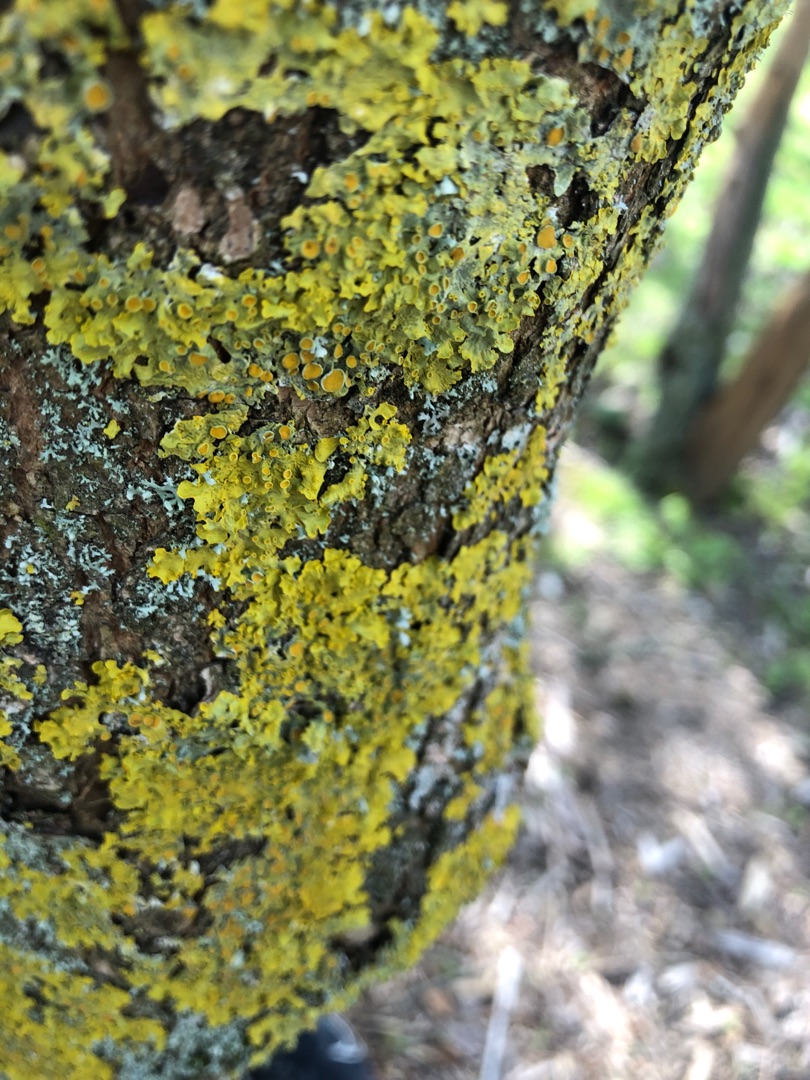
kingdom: Fungi
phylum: Ascomycota
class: Lecanoromycetes
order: Teloschistales
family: Teloschistaceae
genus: Xanthoria
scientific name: Xanthoria parietina
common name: Almindelig væggelav
